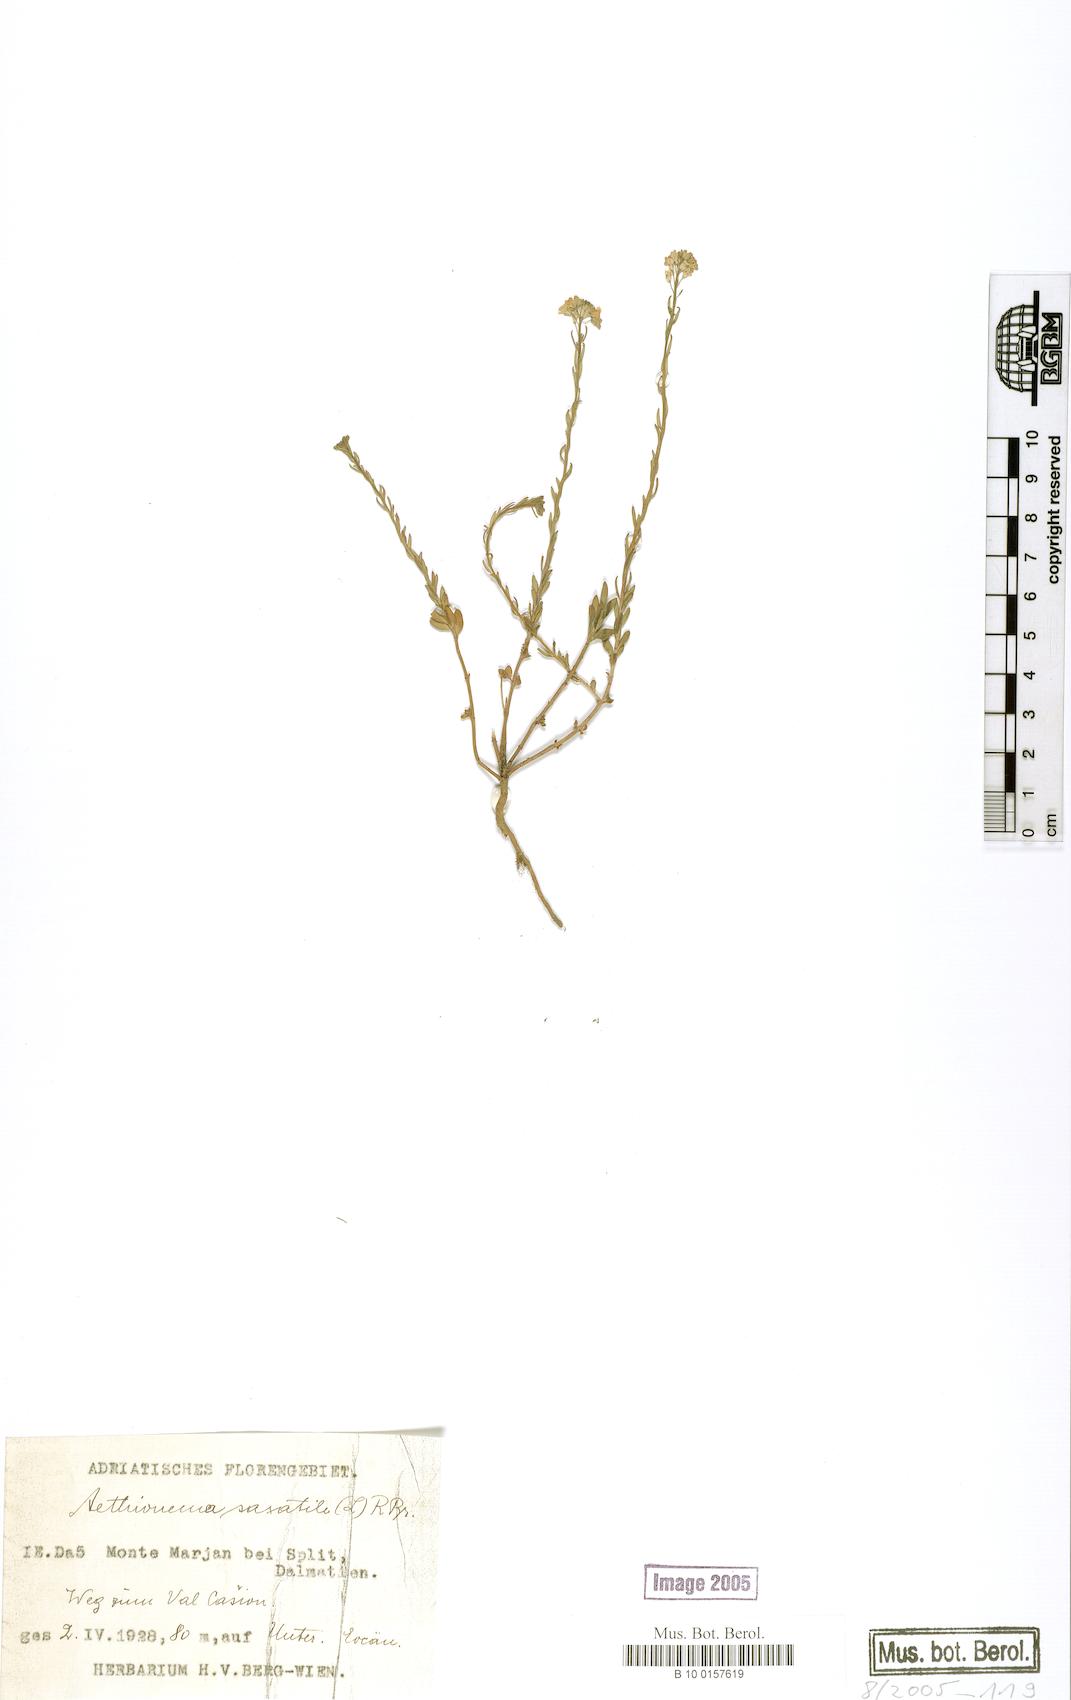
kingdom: Plantae
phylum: Tracheophyta
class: Magnoliopsida
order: Brassicales
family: Brassicaceae
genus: Aethionema
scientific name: Aethionema saxatile
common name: Burnt candytuft
